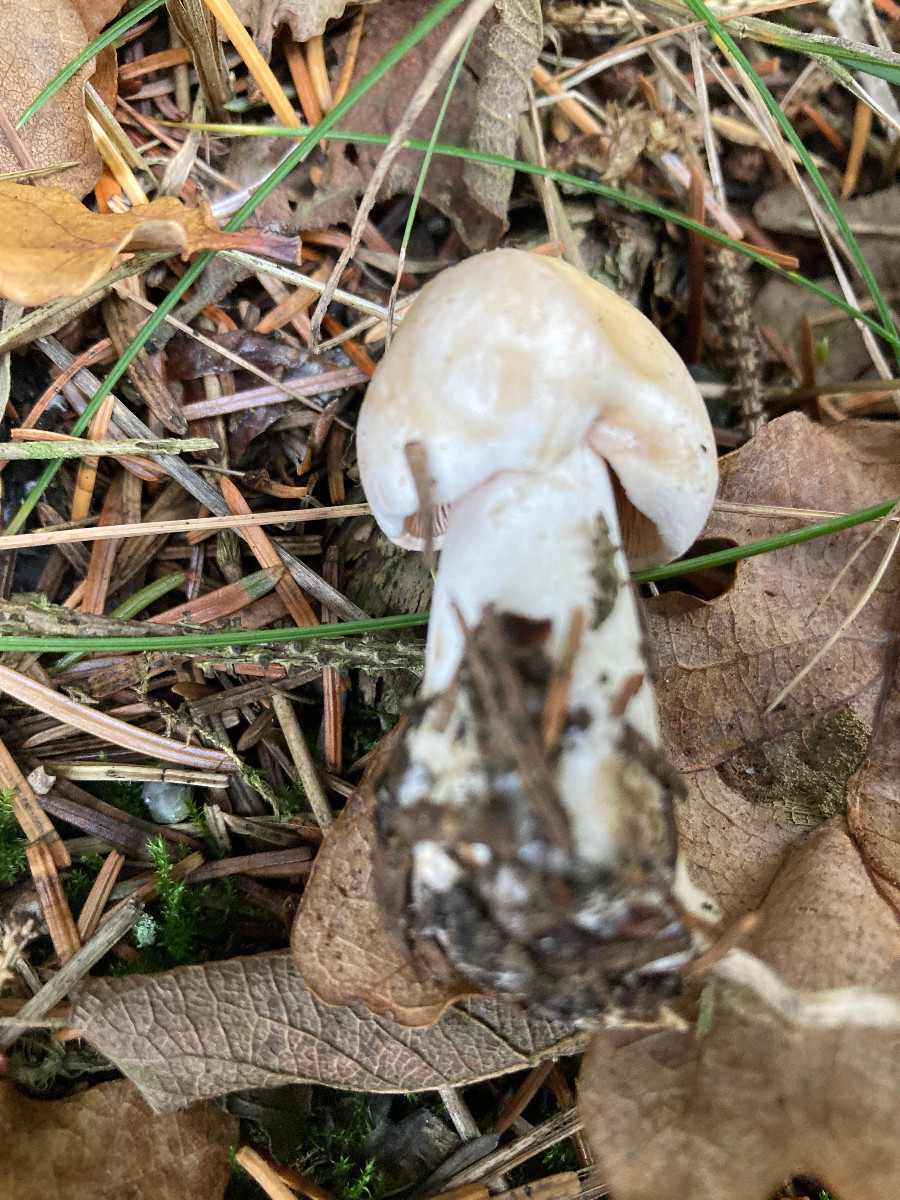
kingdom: Fungi
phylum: Basidiomycota
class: Agaricomycetes
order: Agaricales
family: Tricholomataceae
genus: Tricholoma
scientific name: Tricholoma stiparophyllum
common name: hvid ridderhat
